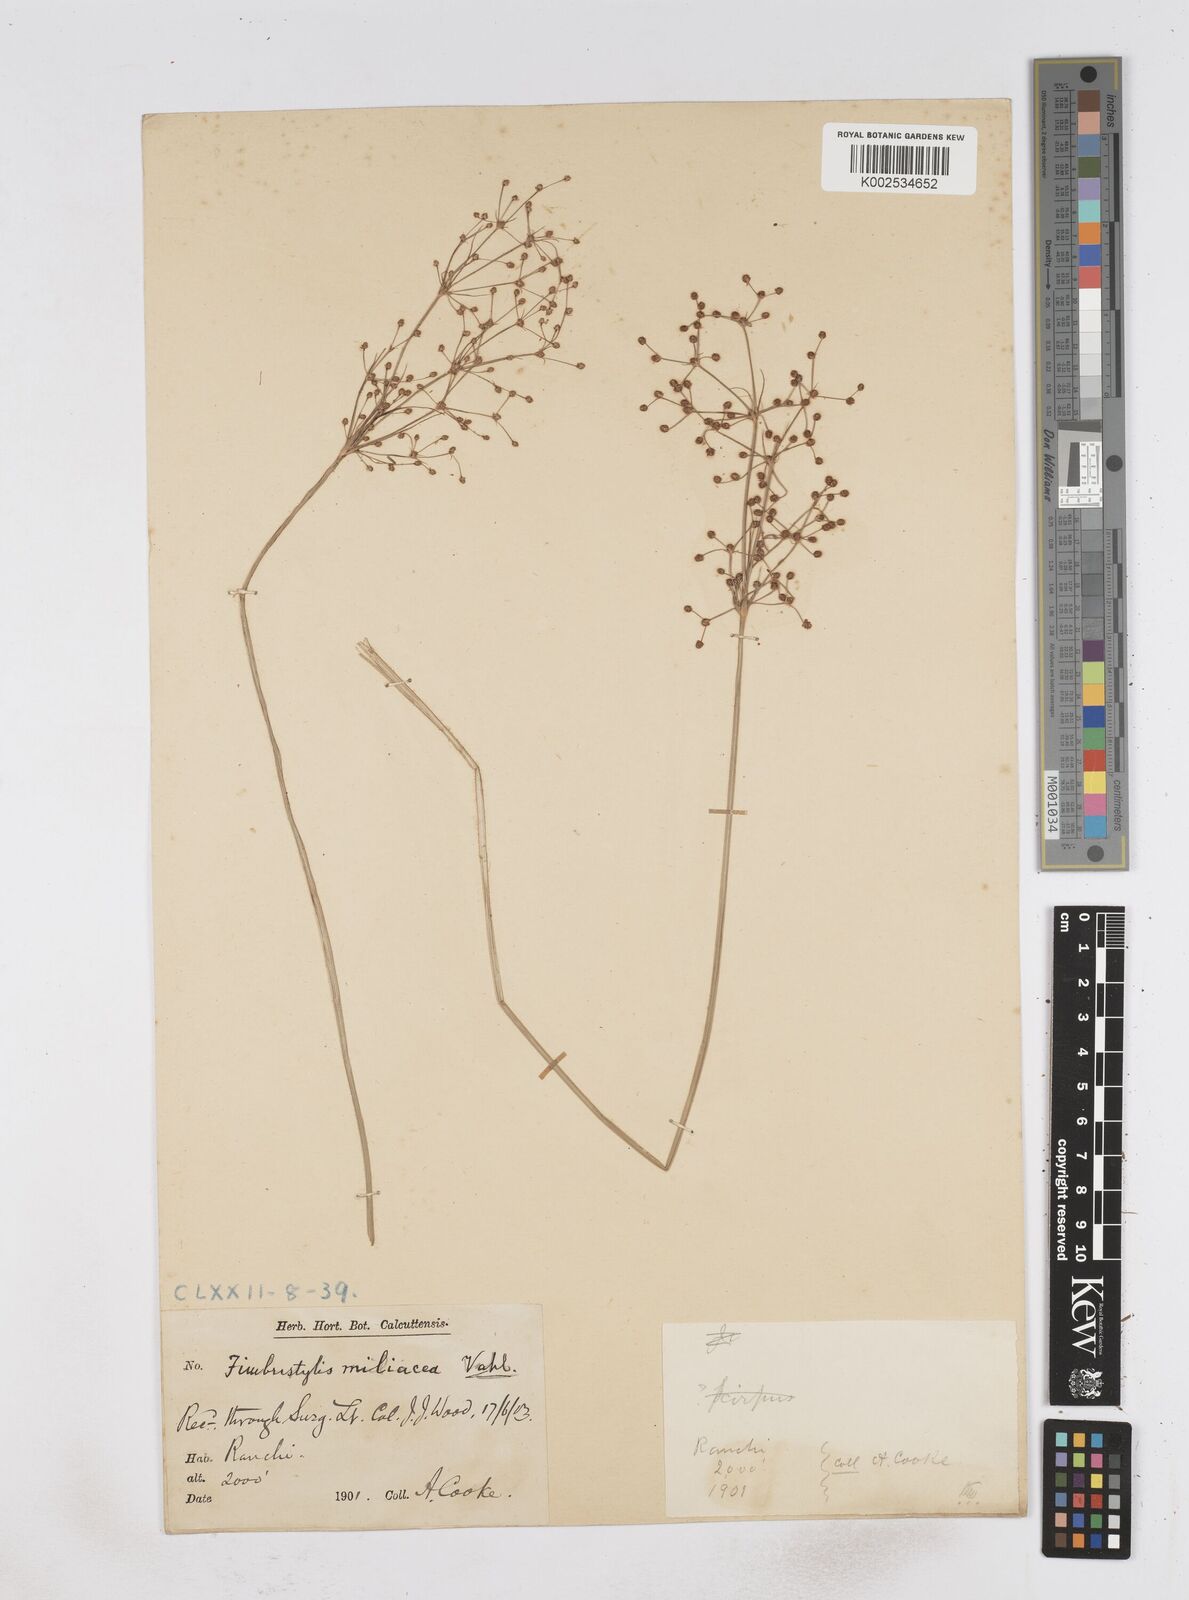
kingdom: Plantae
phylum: Tracheophyta
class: Liliopsida
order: Poales
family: Cyperaceae
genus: Fimbristylis
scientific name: Fimbristylis littoralis
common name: Fimbry
